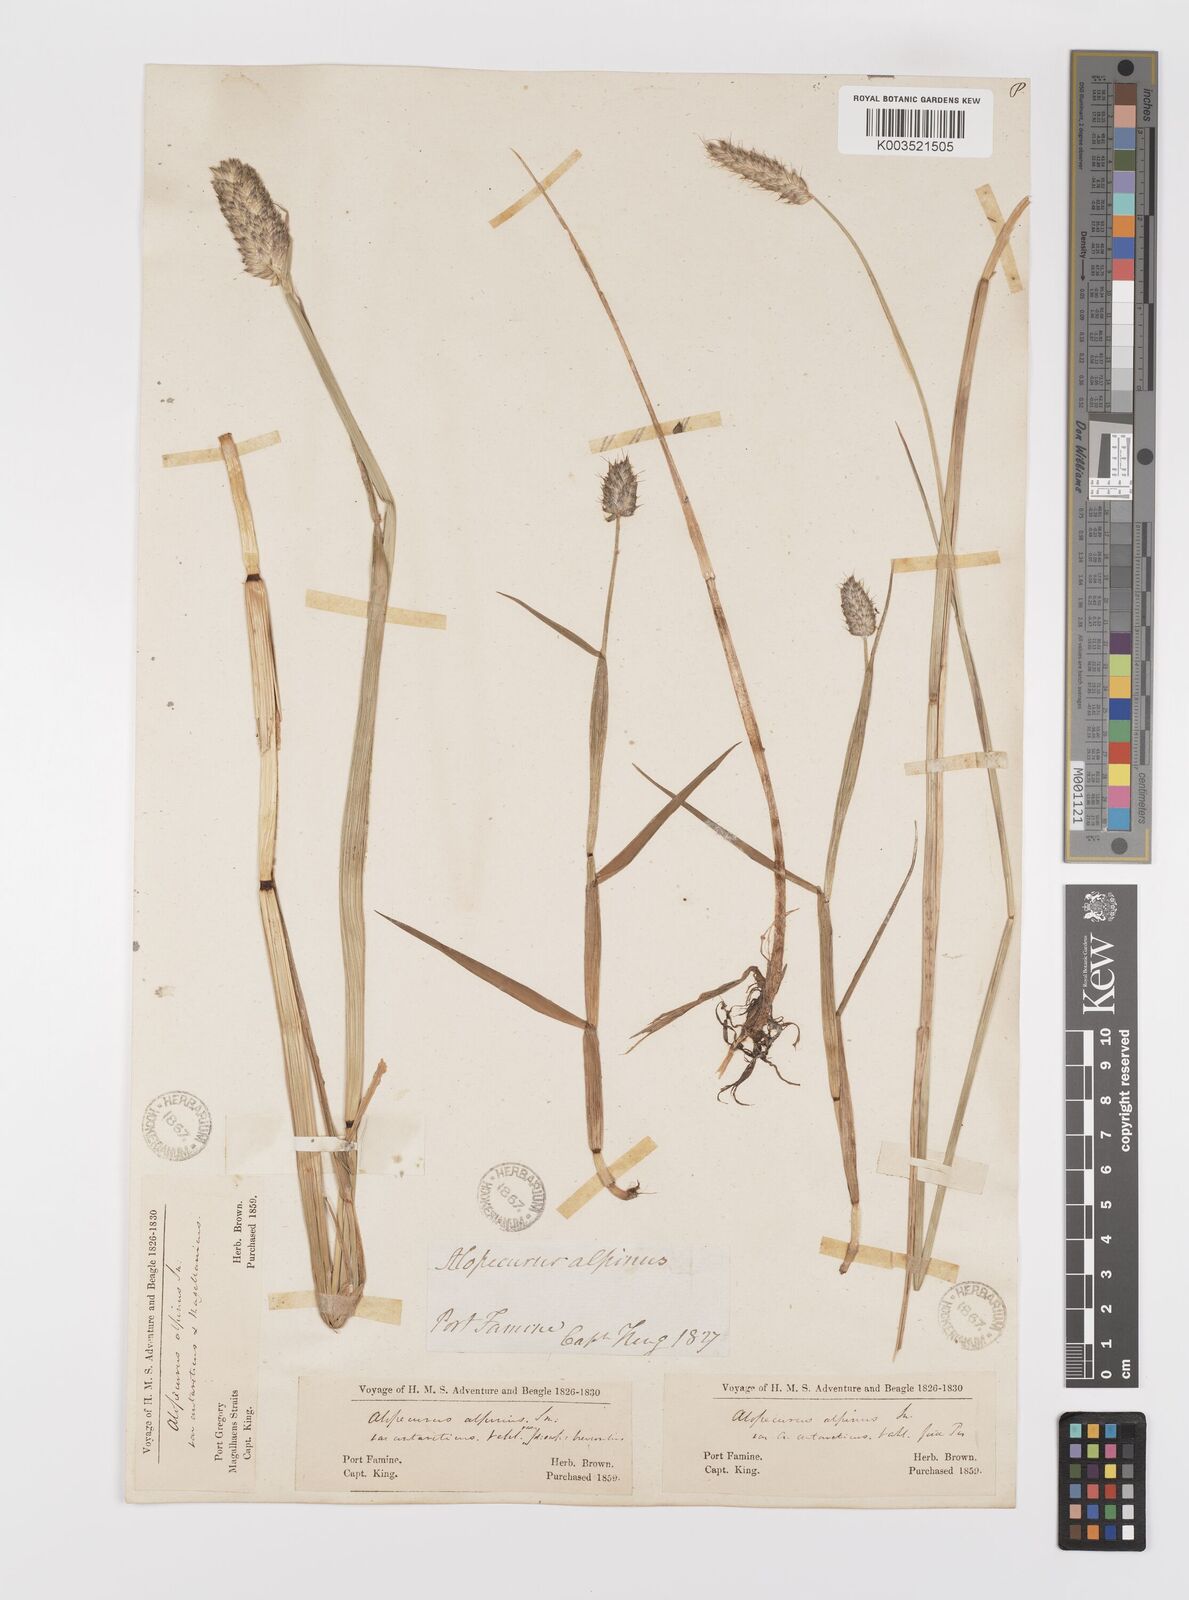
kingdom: Plantae
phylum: Tracheophyta
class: Liliopsida
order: Poales
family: Poaceae
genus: Alopecurus
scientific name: Alopecurus magellanicus
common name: Alpine foxtail
